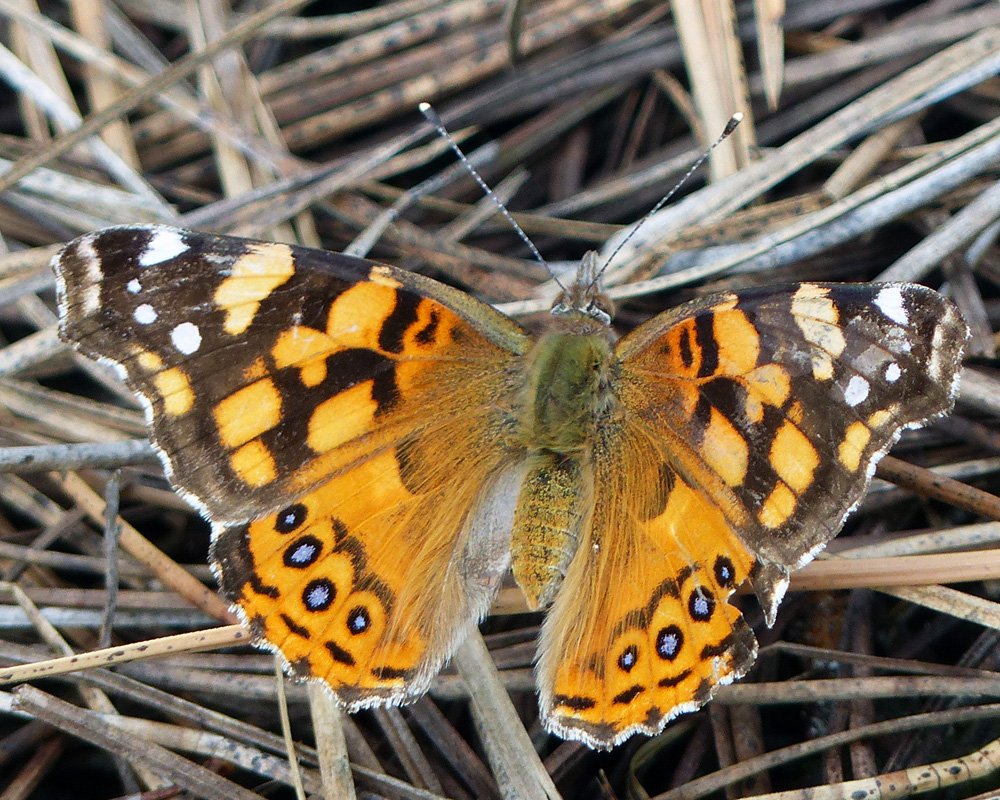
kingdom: Animalia
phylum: Arthropoda
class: Insecta
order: Lepidoptera
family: Nymphalidae
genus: Vanessa
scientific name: Vanessa annabella
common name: West Coast Lady
